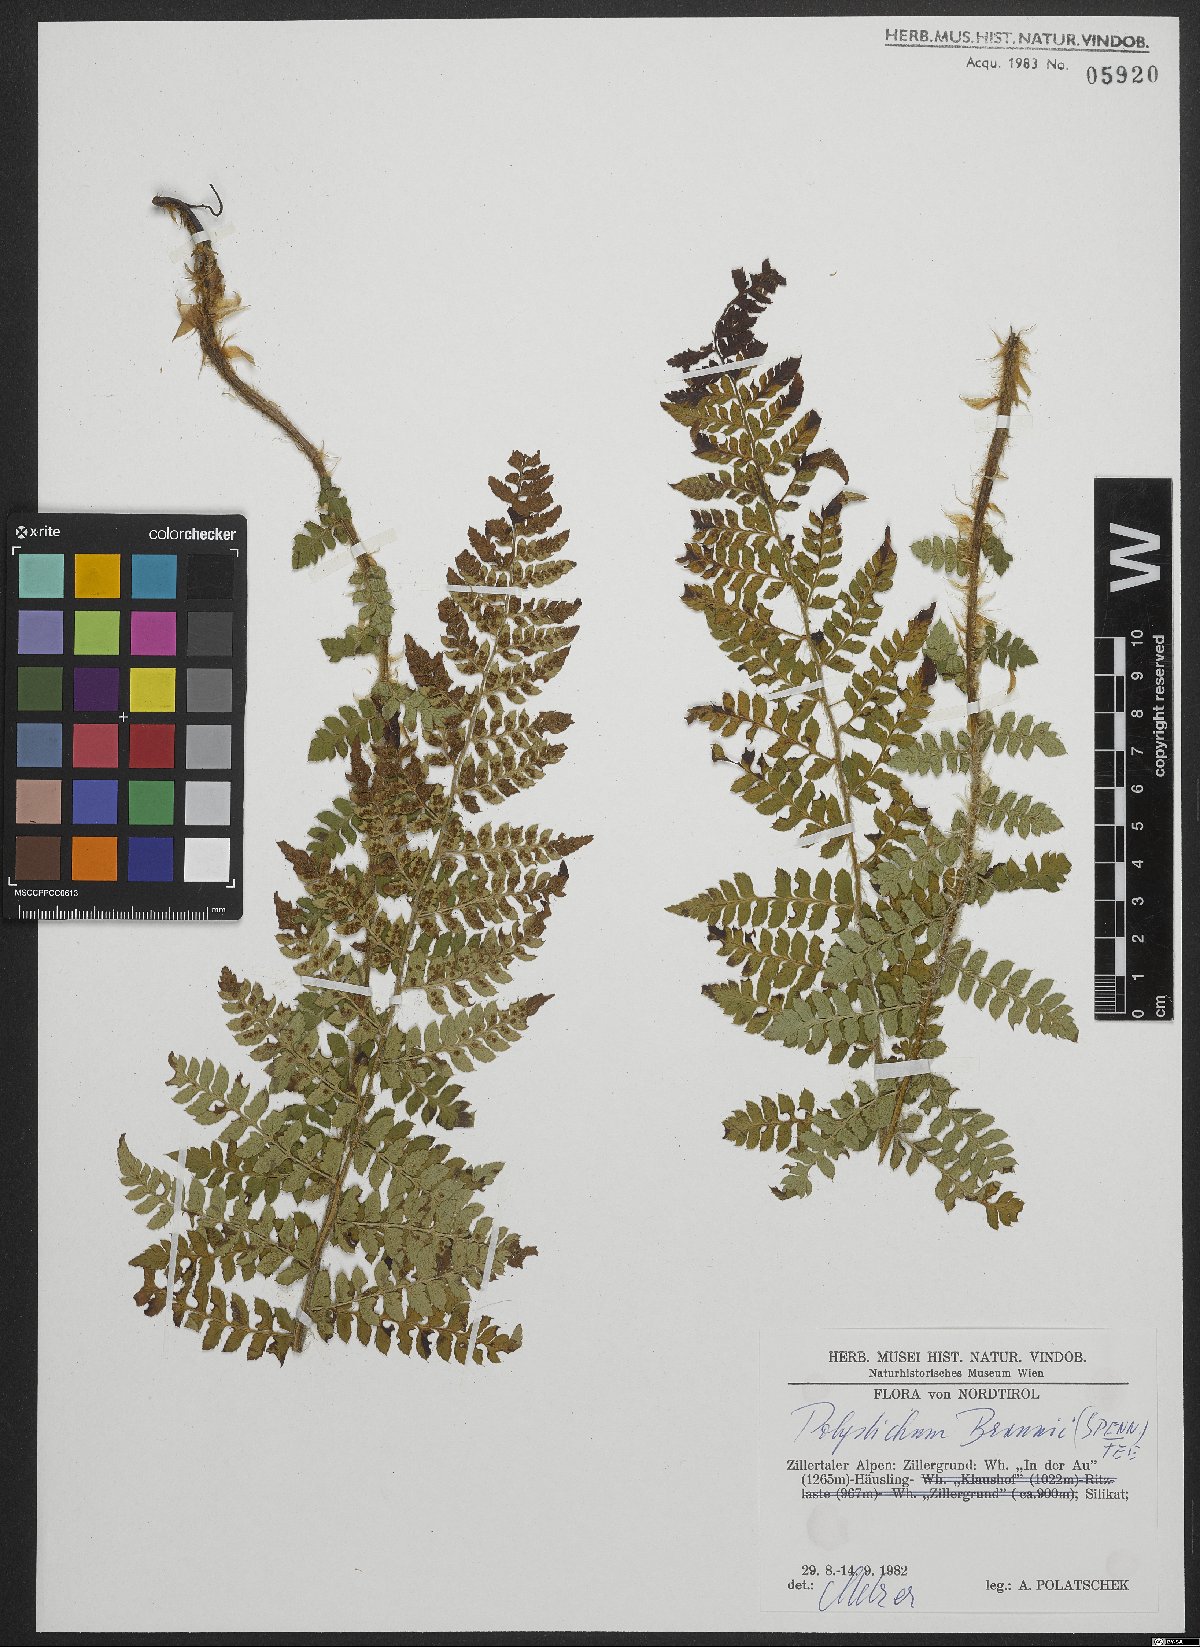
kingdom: Plantae
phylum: Tracheophyta
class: Polypodiopsida
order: Polypodiales
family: Dryopteridaceae
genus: Polystichum
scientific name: Polystichum braunii
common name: Braun's holly fern
